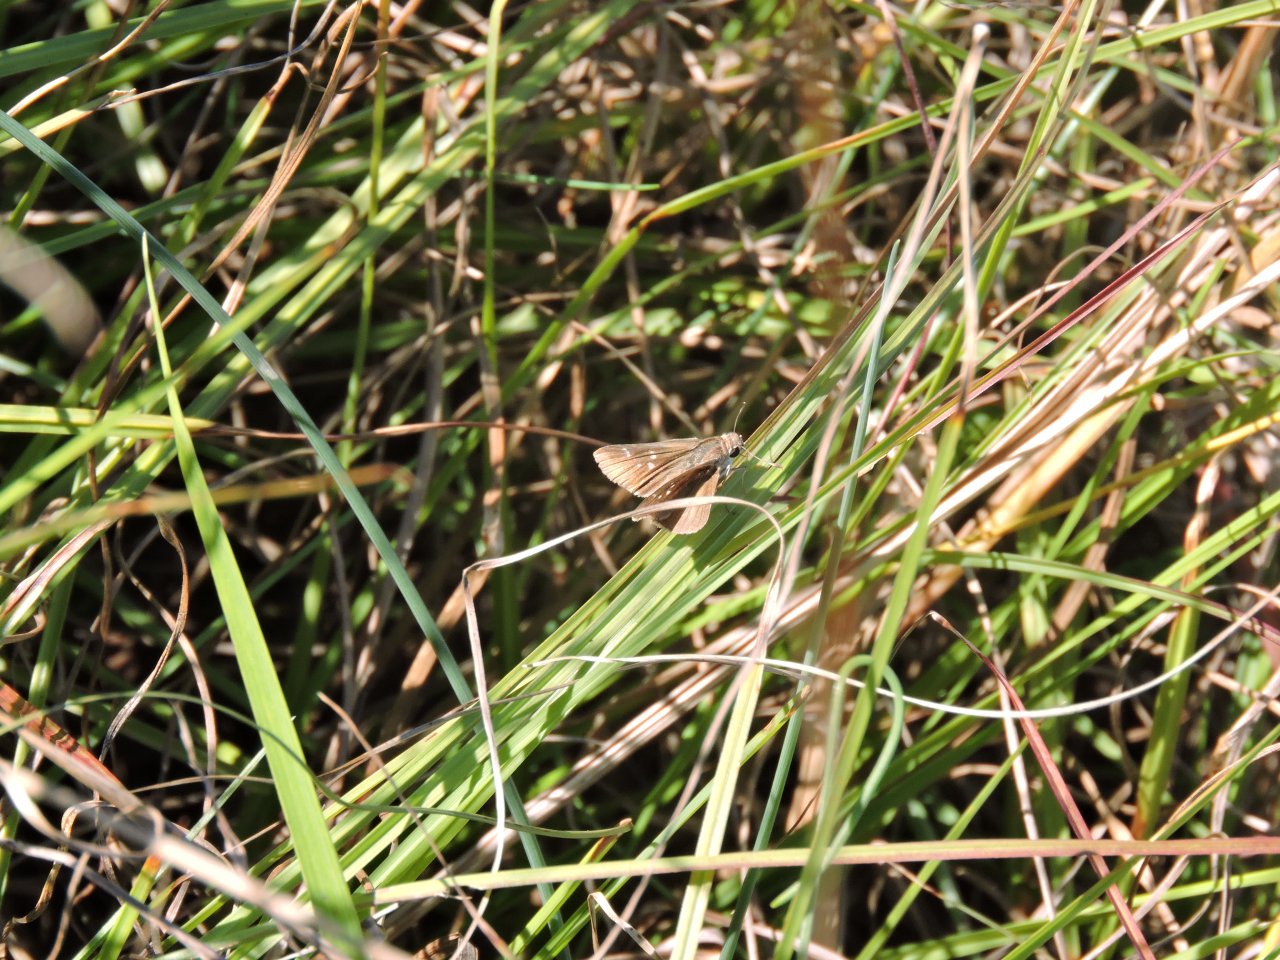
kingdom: Animalia
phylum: Arthropoda
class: Insecta
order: Lepidoptera
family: Hesperiidae
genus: Lerodea
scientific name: Lerodea eufala
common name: Eufala Skipper
